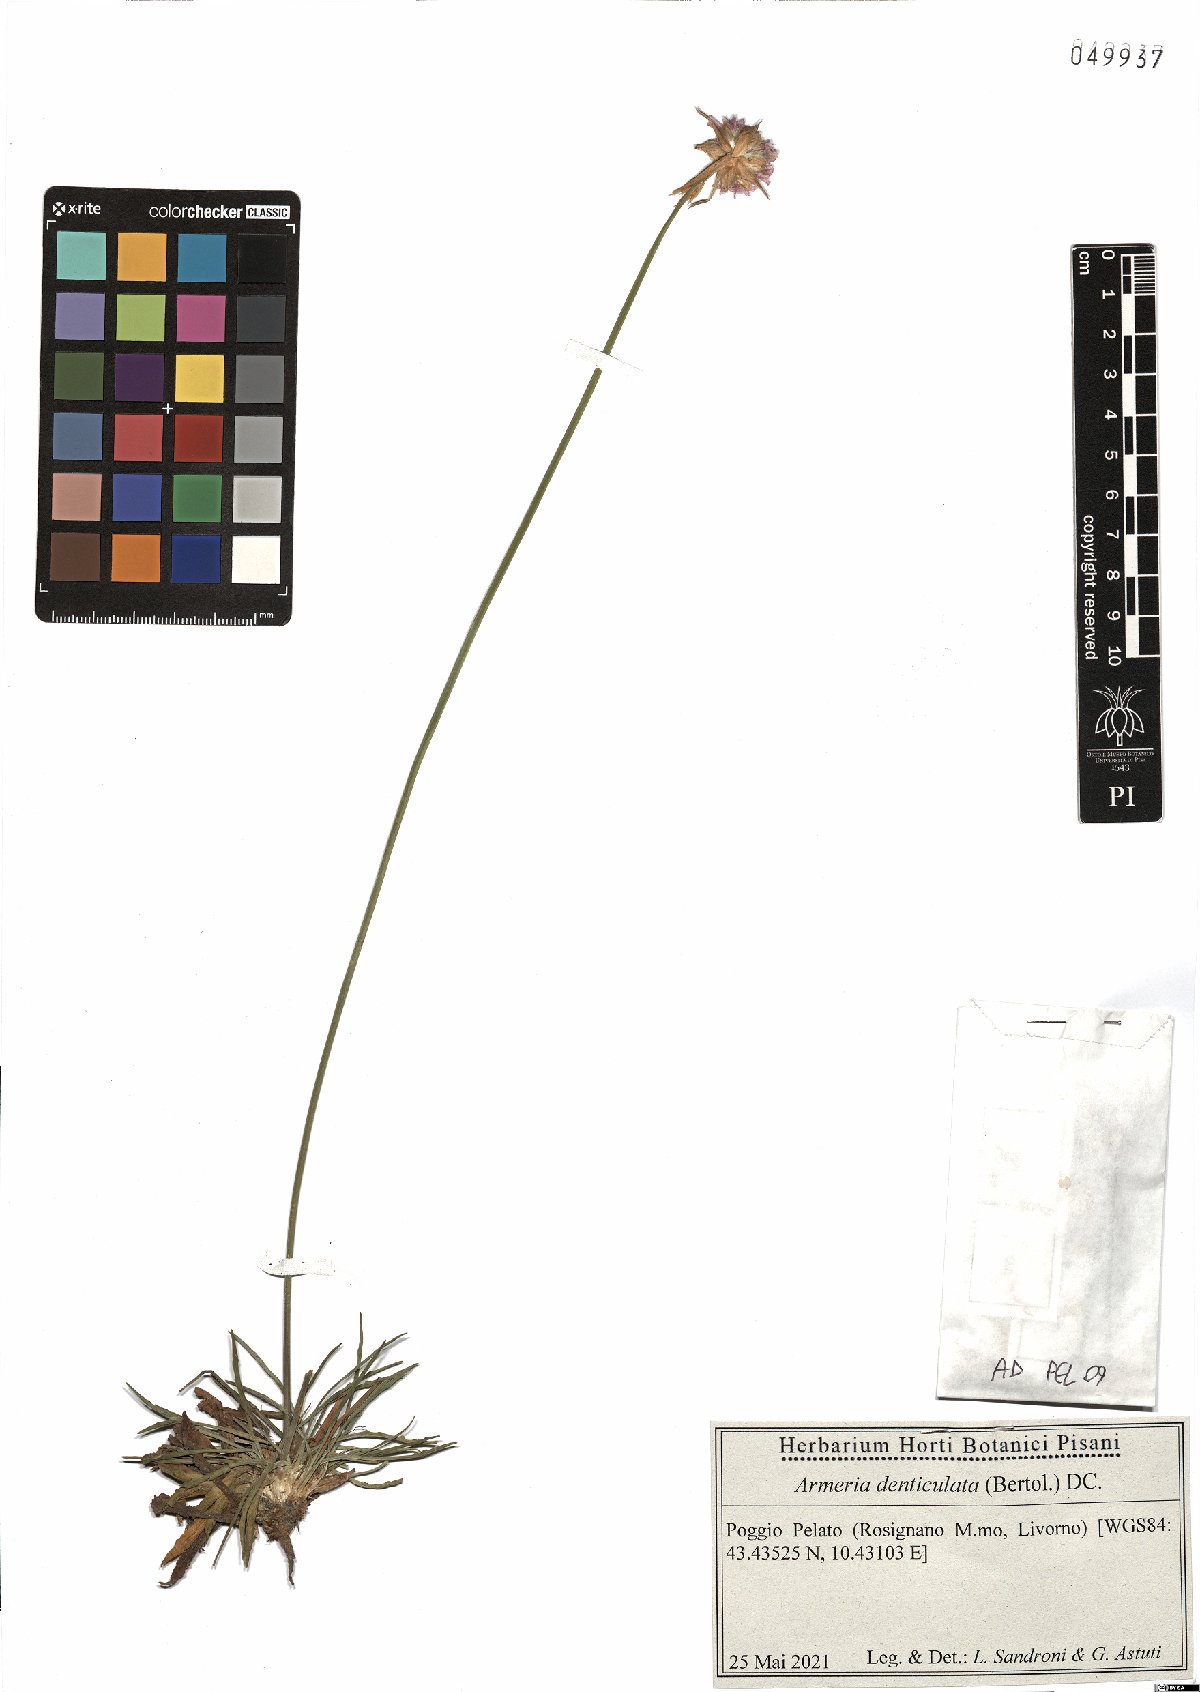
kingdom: Plantae
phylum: Tracheophyta
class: Magnoliopsida
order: Caryophyllales
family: Plumbaginaceae
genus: Armeria
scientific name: Armeria denticulata
